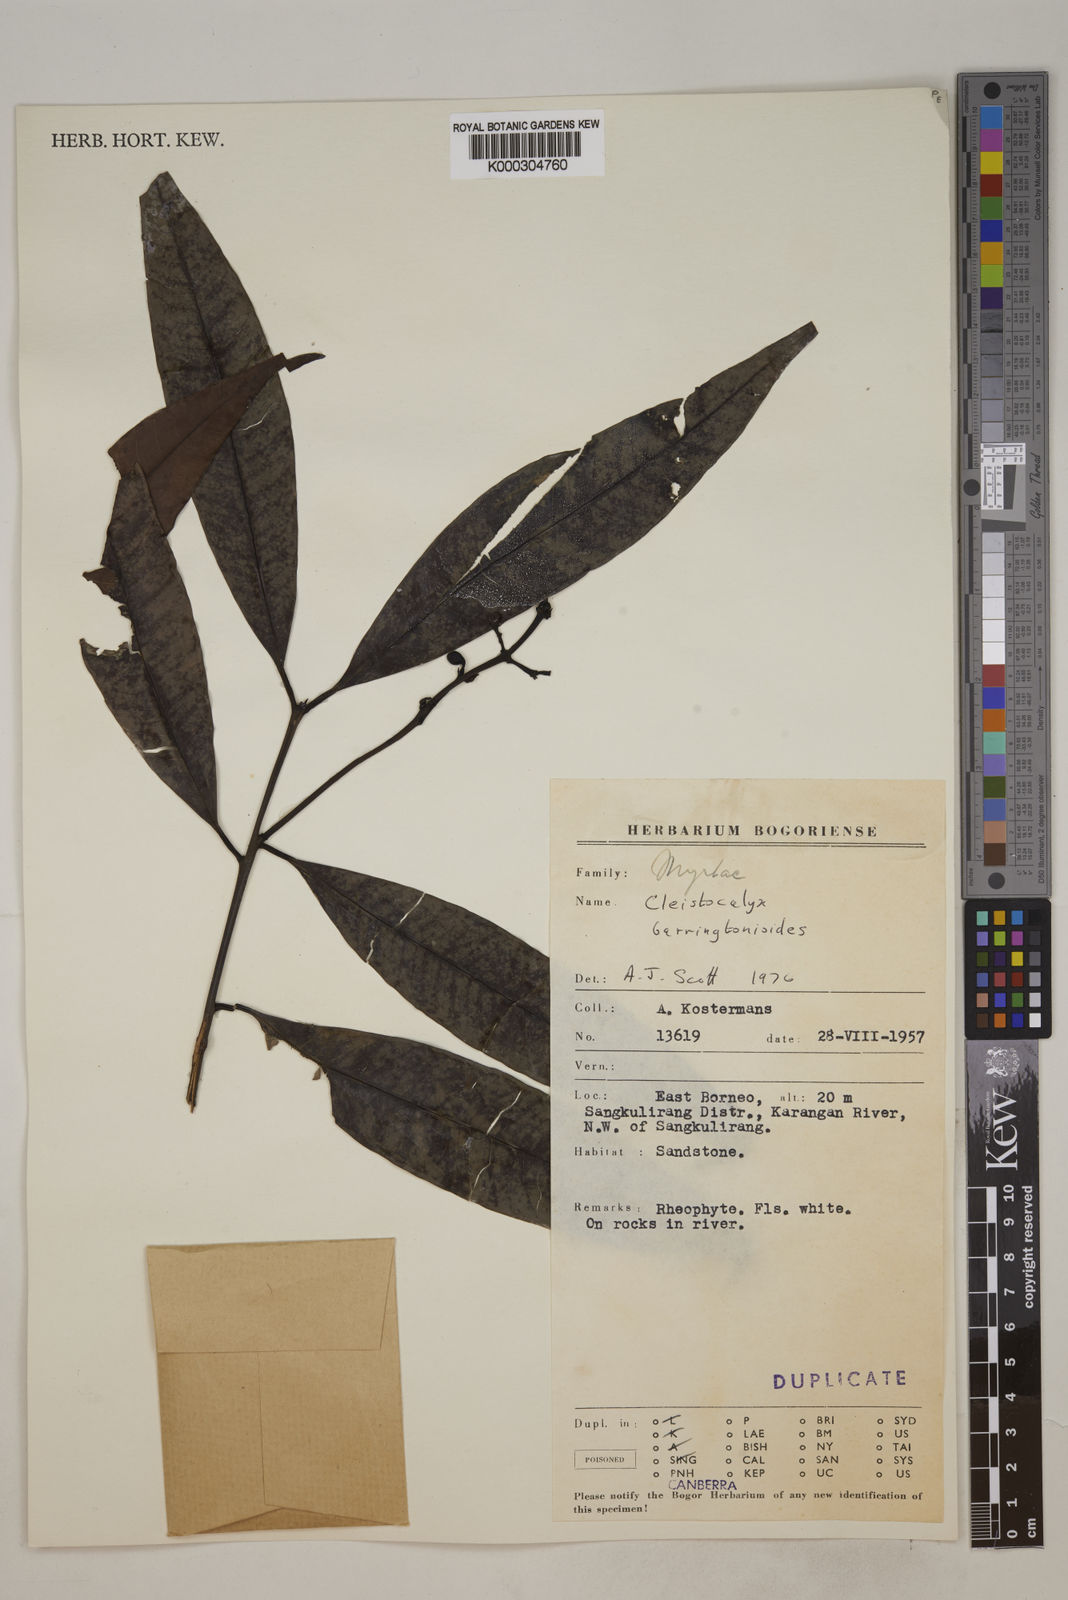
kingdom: Plantae
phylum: Tracheophyta
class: Magnoliopsida
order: Myrtales
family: Myrtaceae
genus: Syzygium
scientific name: Syzygium barringtonioides
